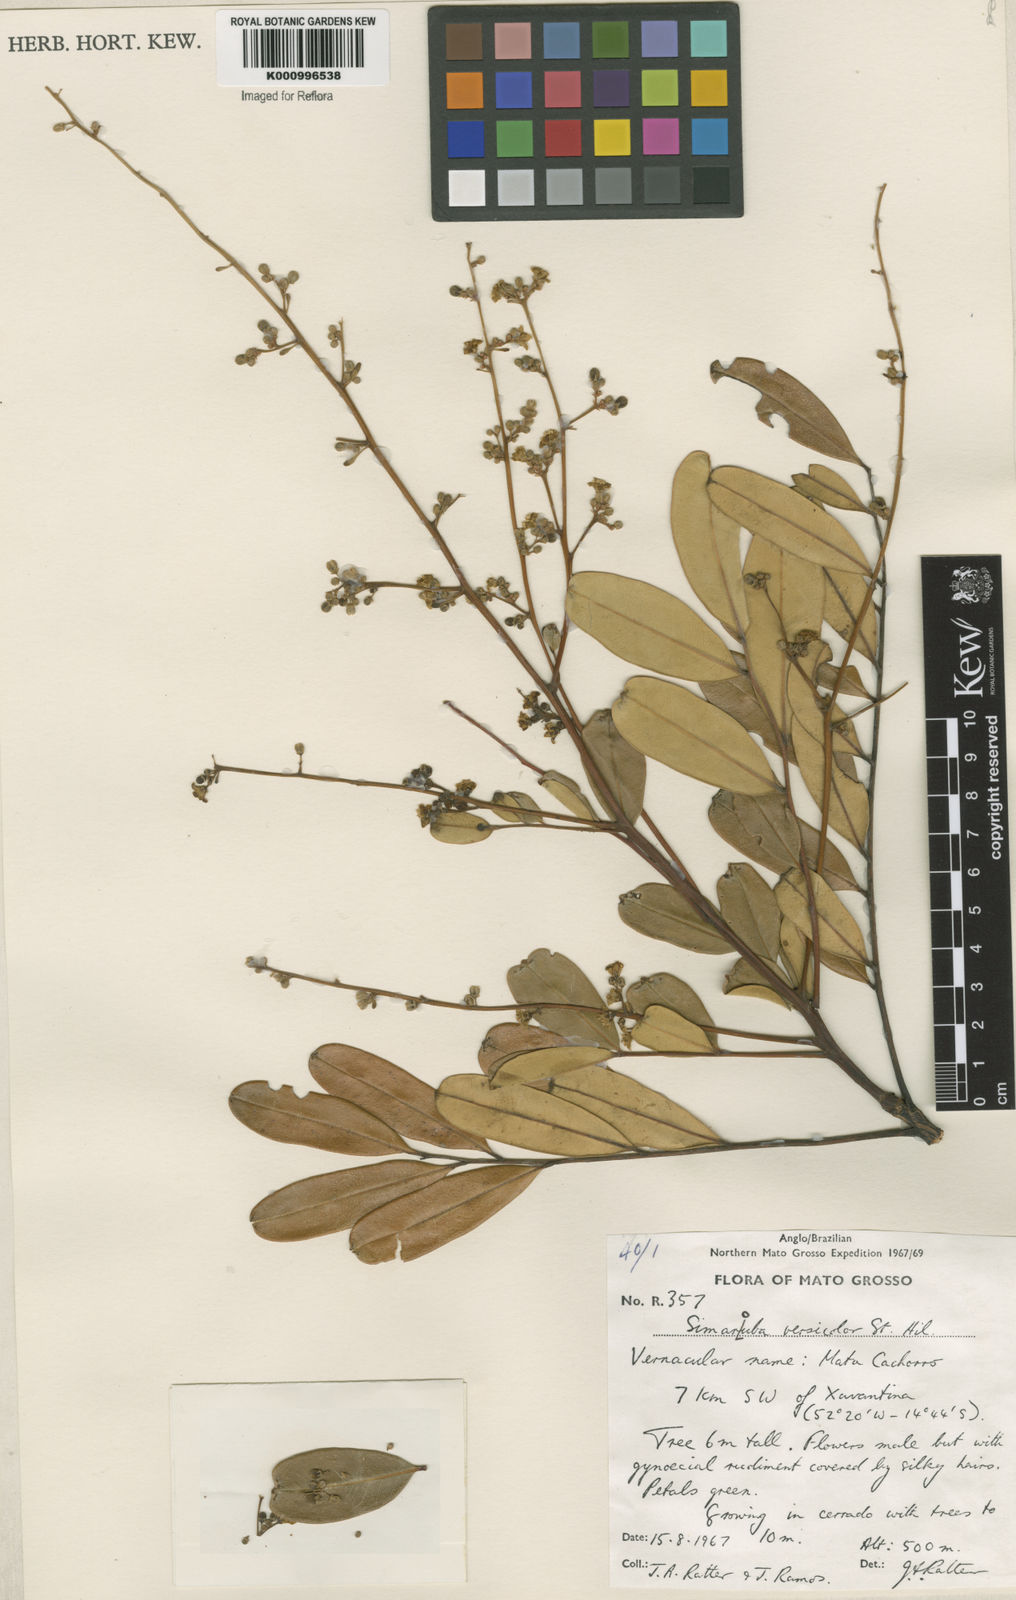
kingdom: Plantae
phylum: Tracheophyta
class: Magnoliopsida
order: Sapindales
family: Simaroubaceae
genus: Simarouba
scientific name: Simarouba versicolor
